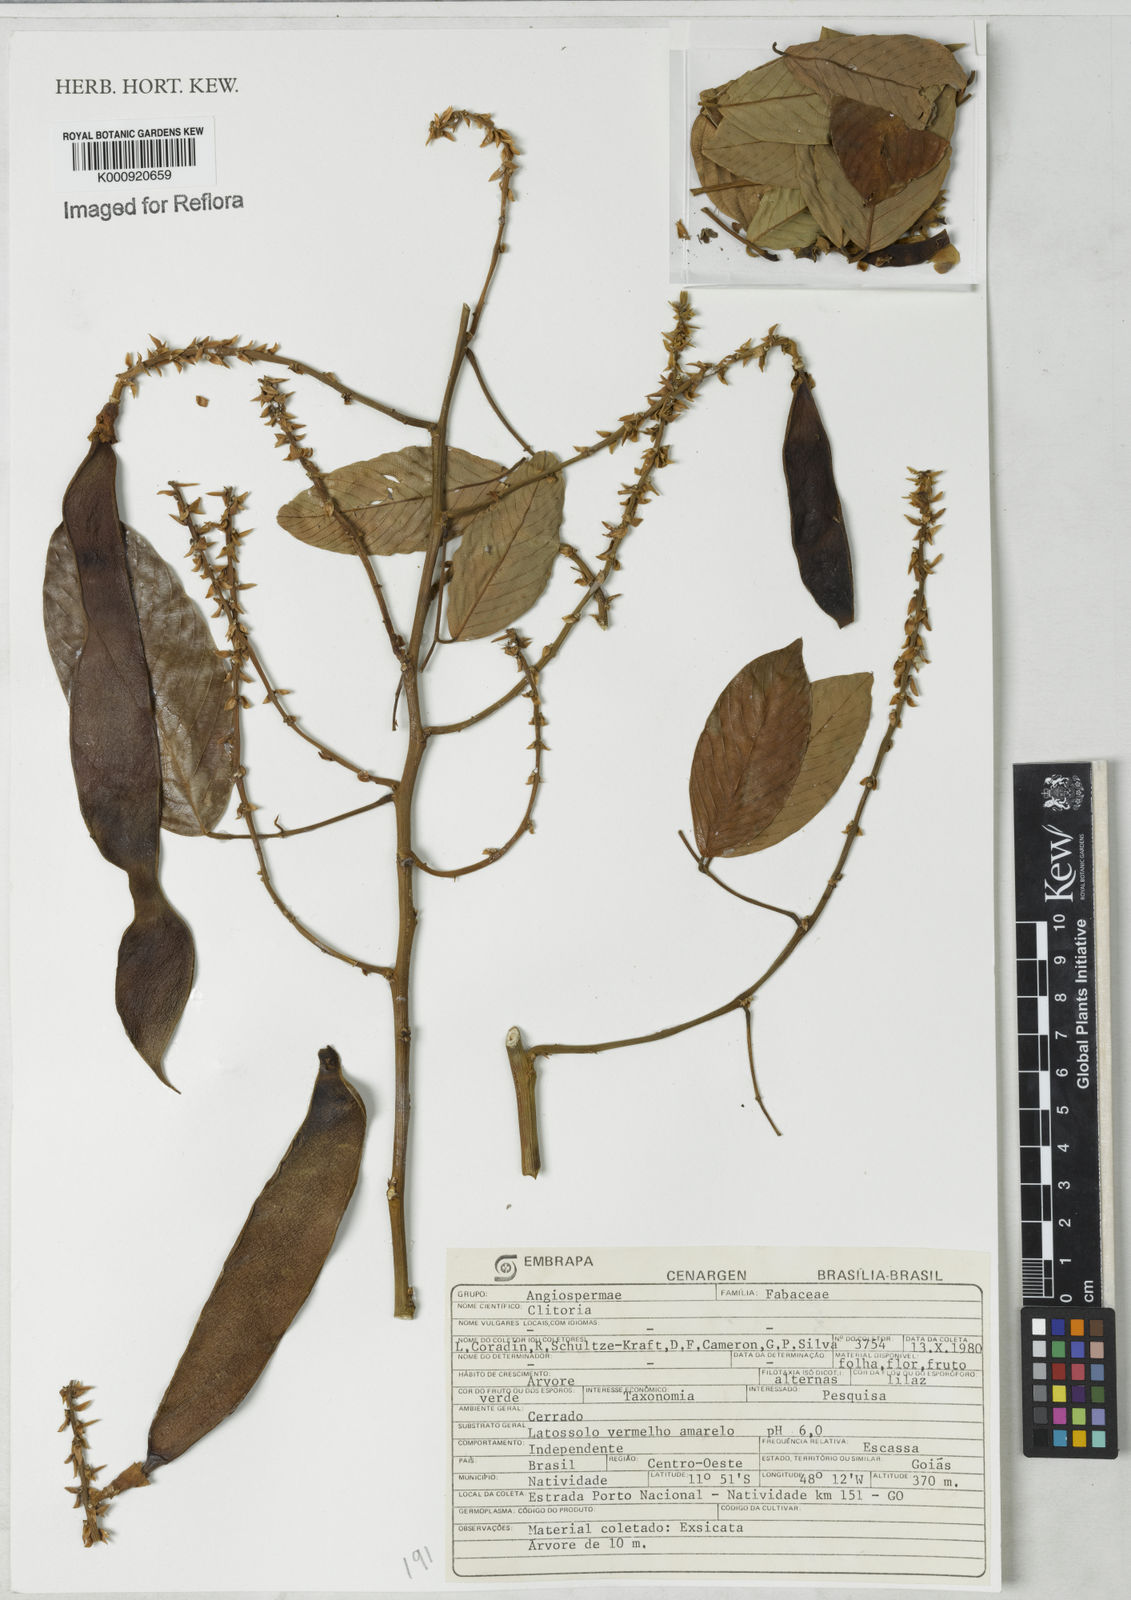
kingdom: Plantae
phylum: Tracheophyta
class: Magnoliopsida
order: Fabales
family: Fabaceae
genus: Clitoria
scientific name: Clitoria
